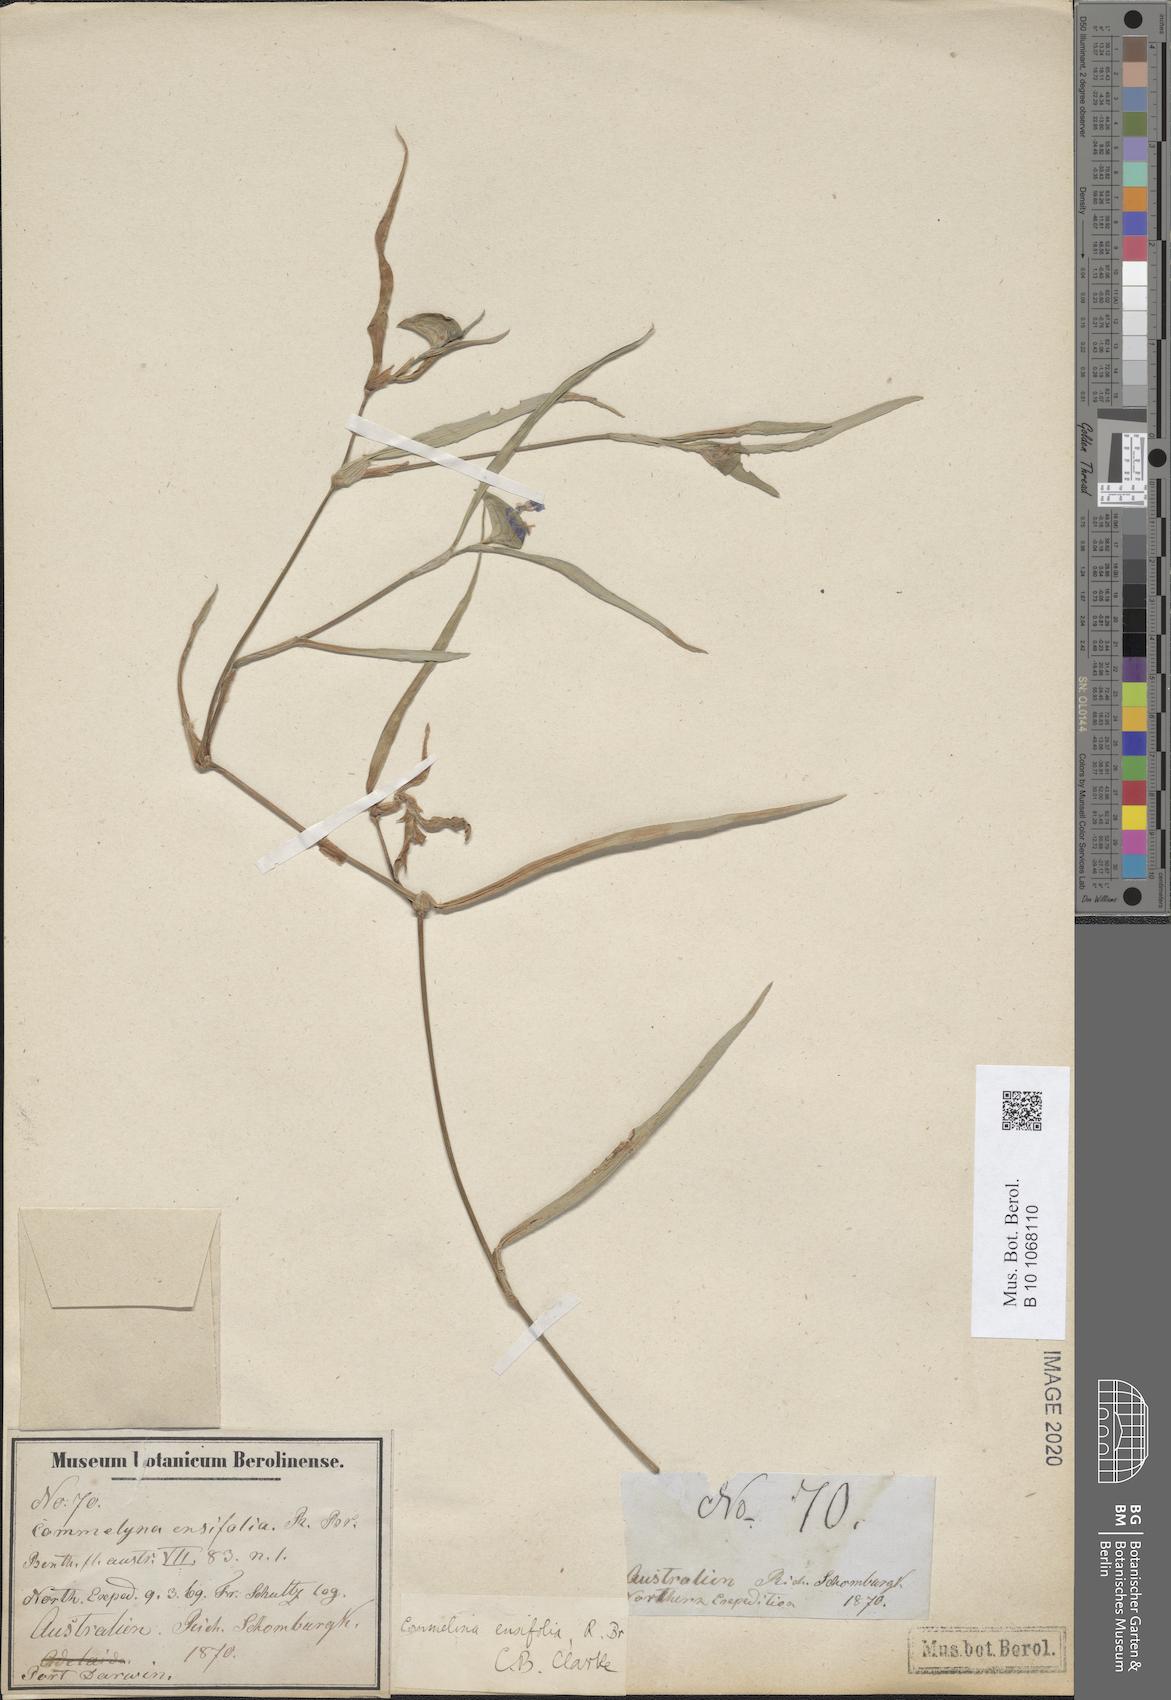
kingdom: Plantae
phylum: Tracheophyta
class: Liliopsida
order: Commelinales
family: Commelinaceae
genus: Commelina
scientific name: Commelina ensifolia
